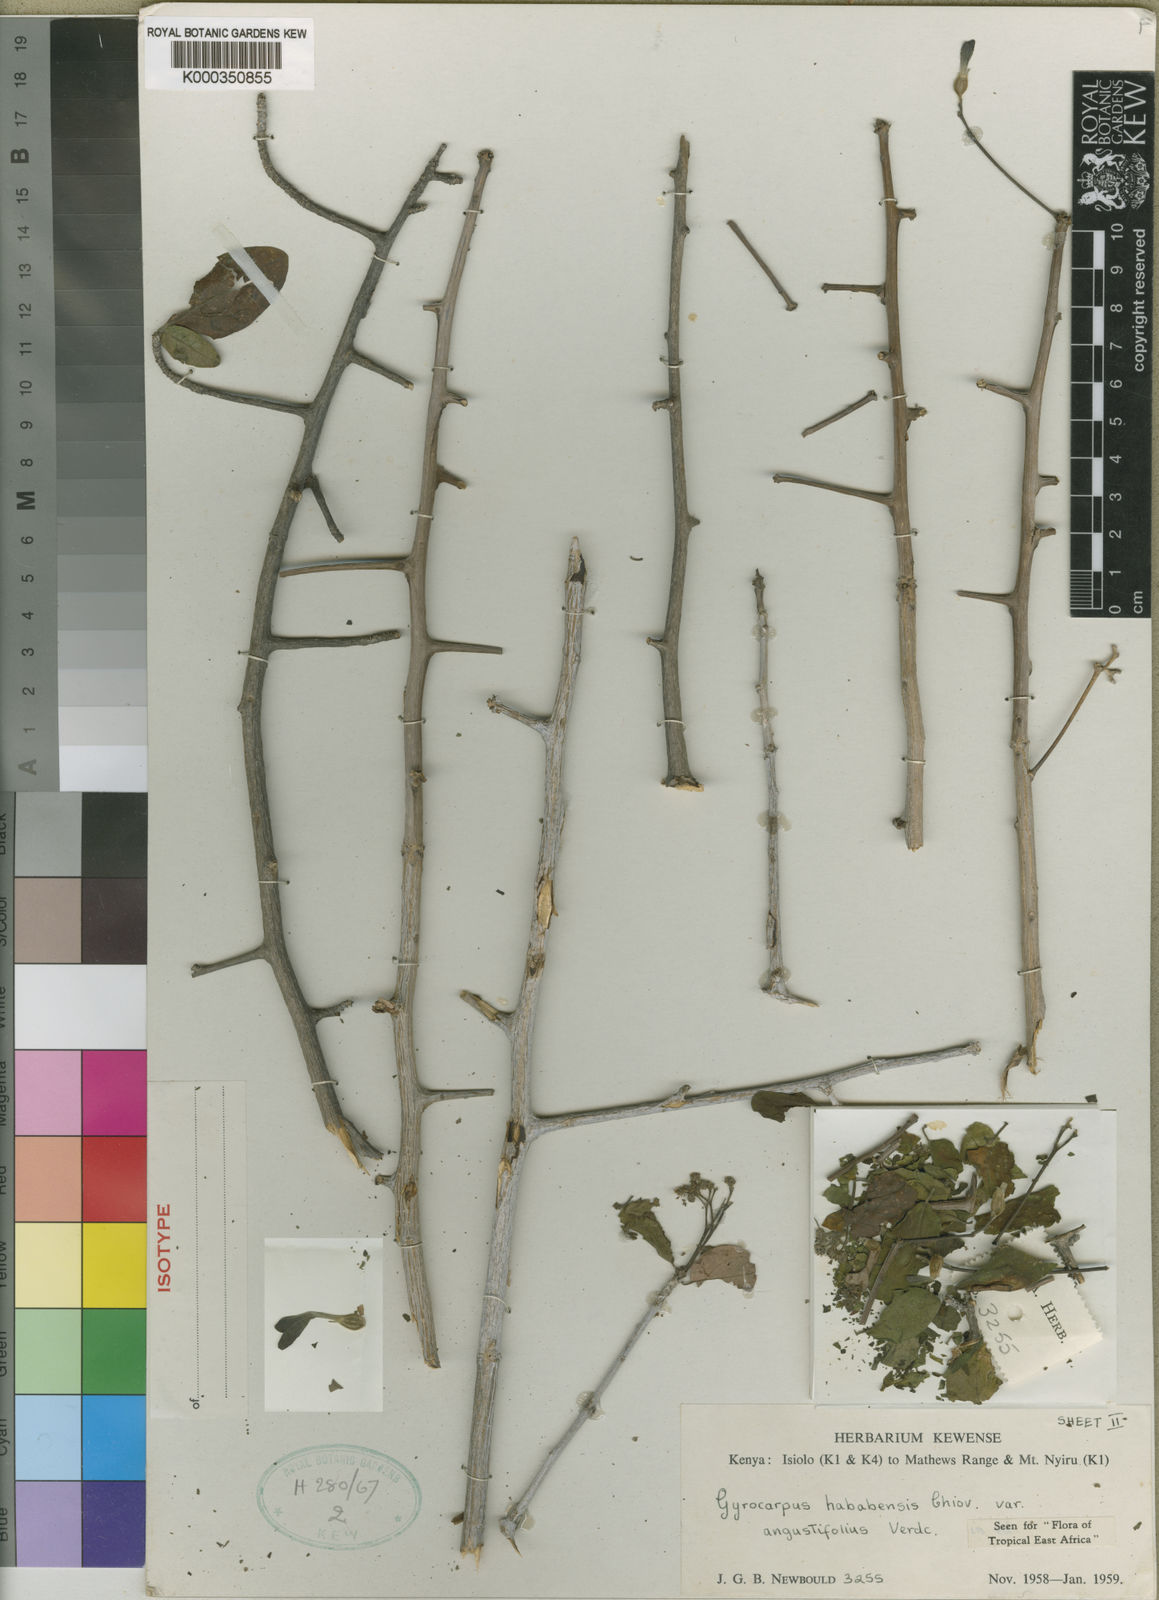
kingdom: Plantae
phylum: Tracheophyta
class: Magnoliopsida
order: Laurales
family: Hernandiaceae
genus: Gyrocarpus
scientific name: Gyrocarpus angustifolius
